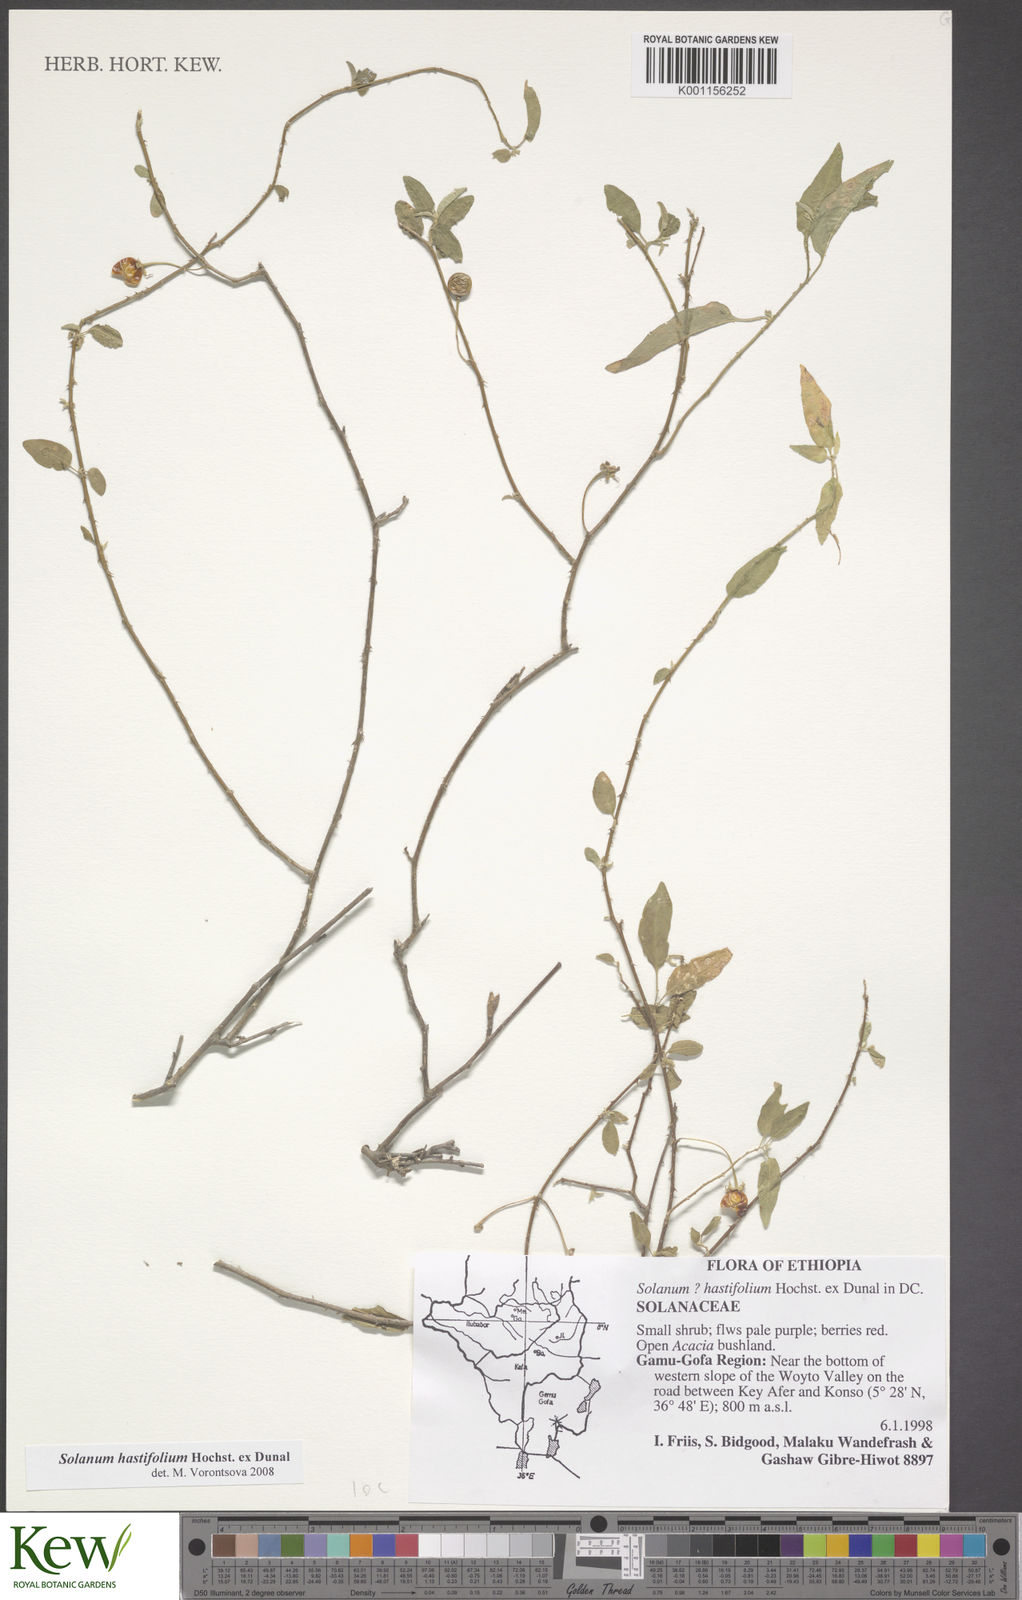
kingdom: Plantae
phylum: Tracheophyta
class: Magnoliopsida
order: Solanales
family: Solanaceae
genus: Solanum
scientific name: Solanum hastifolium
